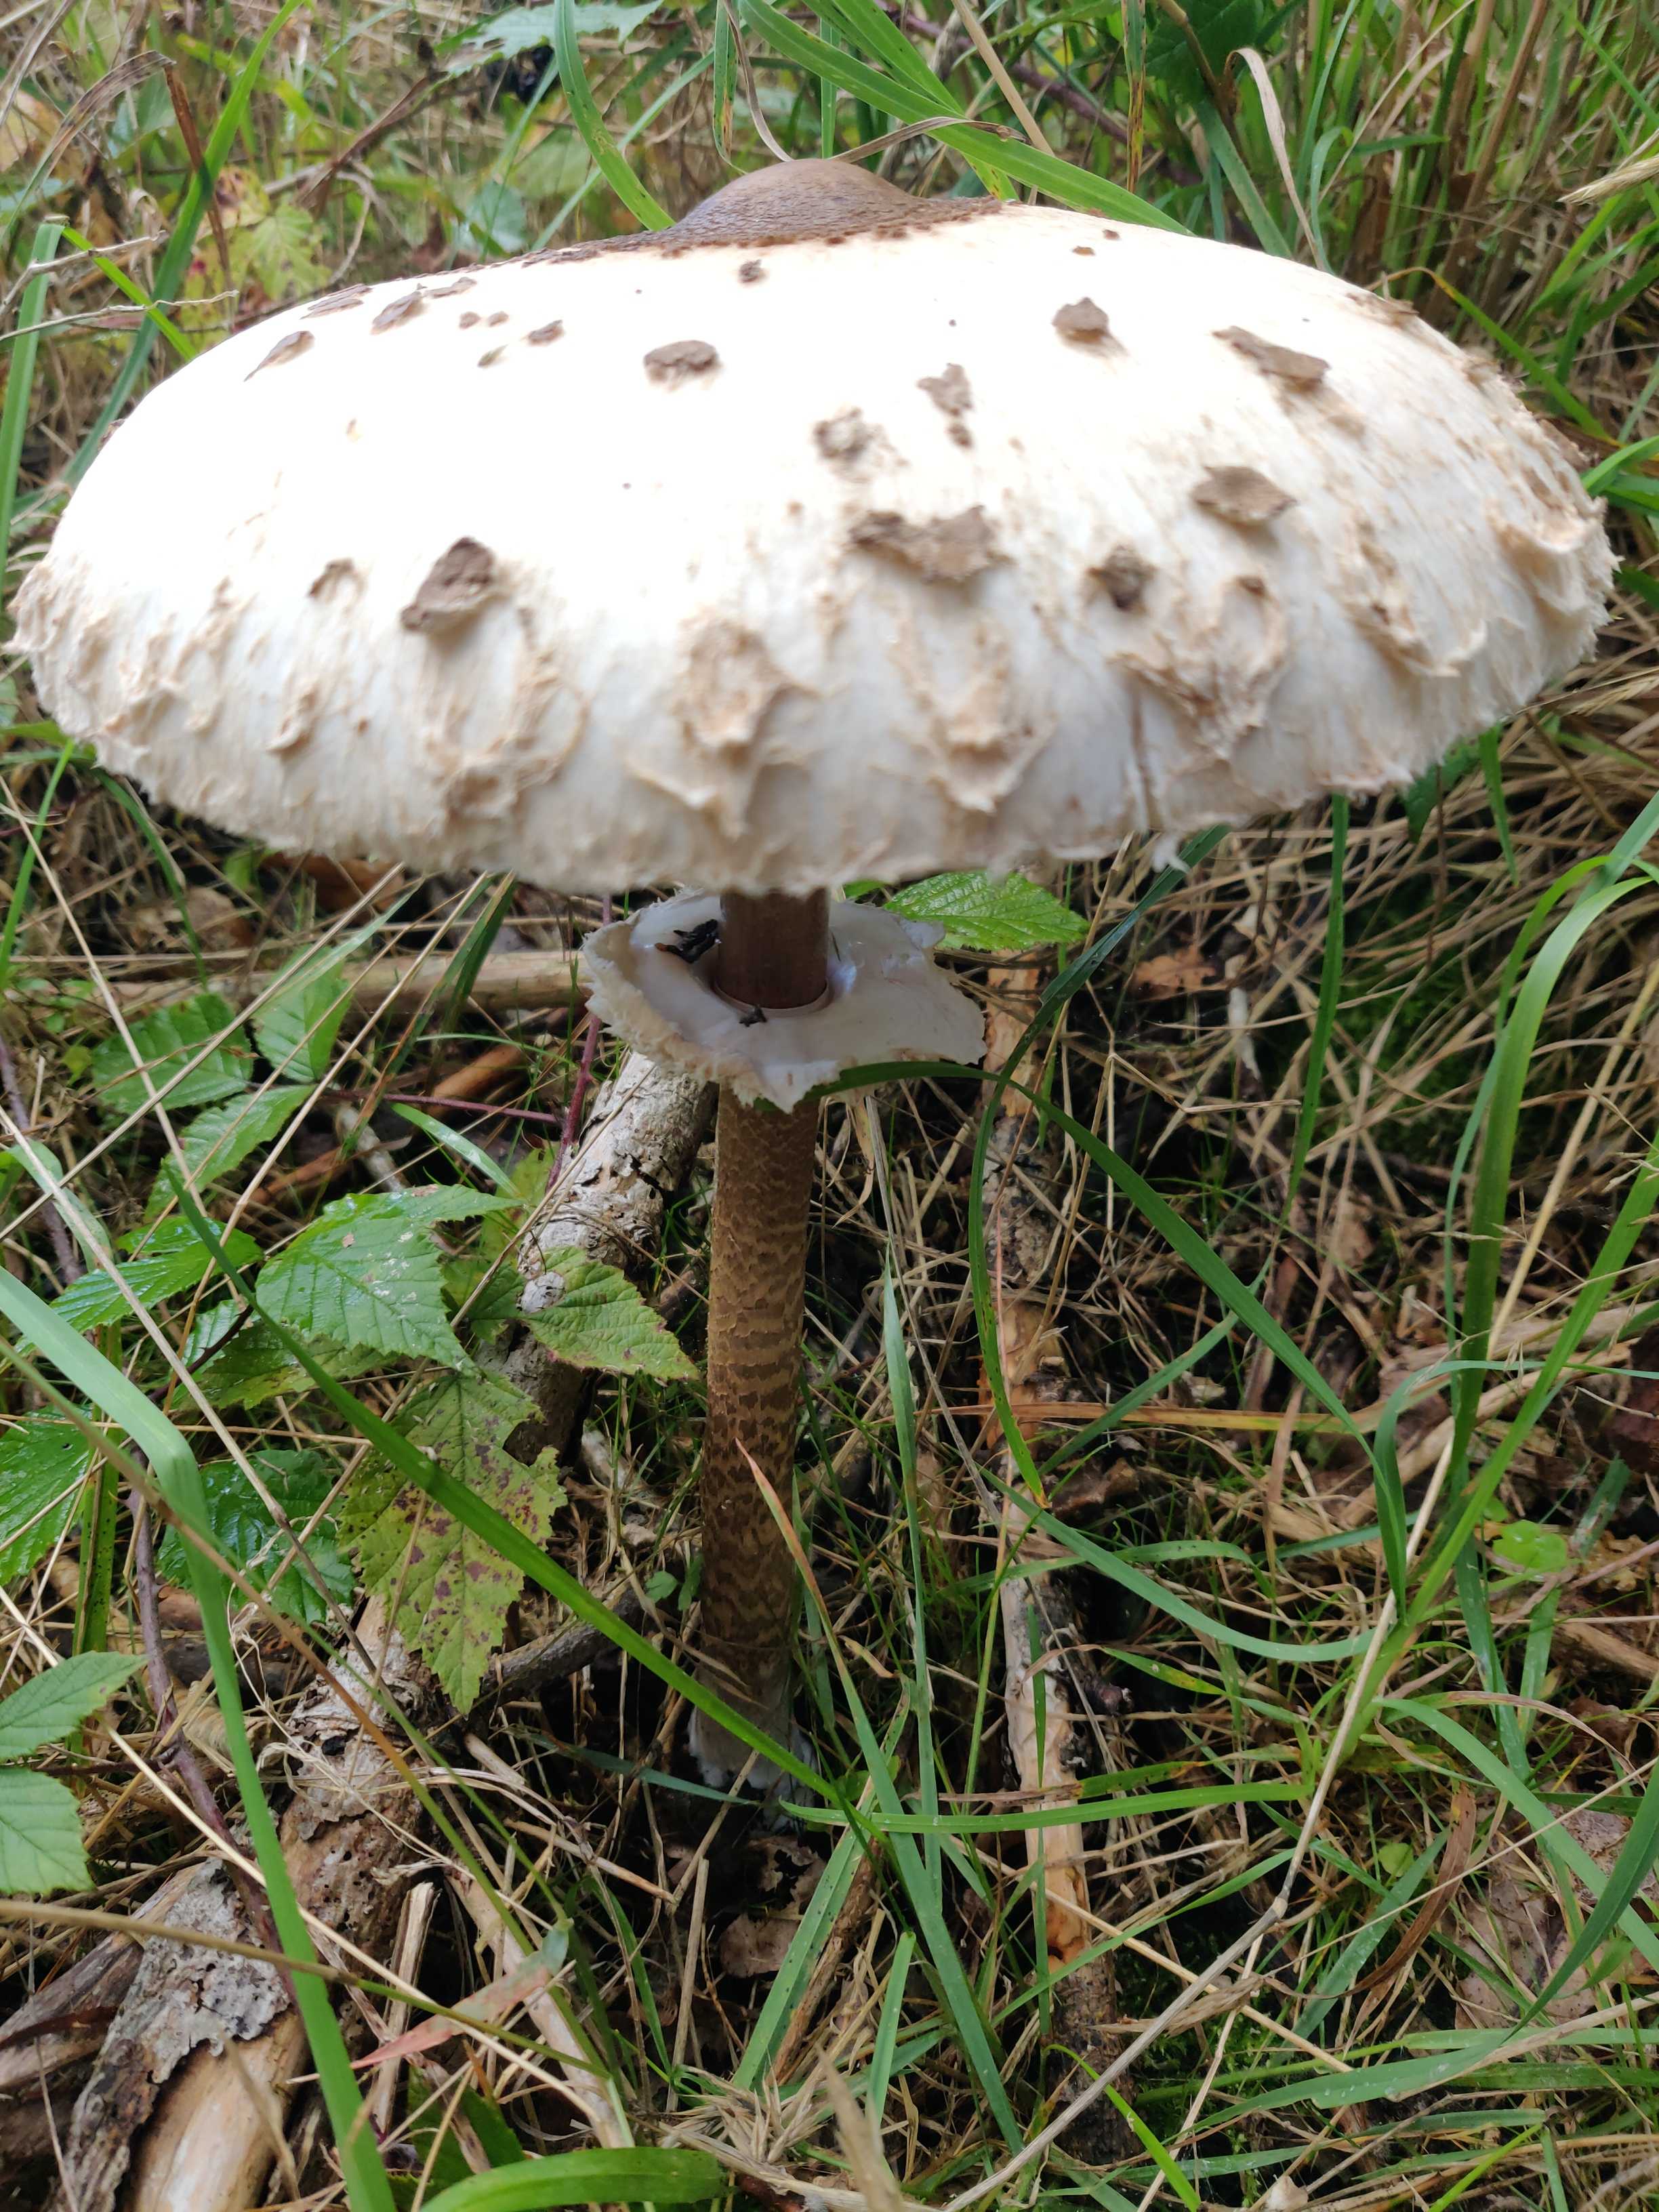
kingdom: Fungi
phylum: Basidiomycota
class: Agaricomycetes
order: Agaricales
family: Agaricaceae
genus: Macrolepiota
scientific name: Macrolepiota procera
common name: stor kæmpeparasolhat
